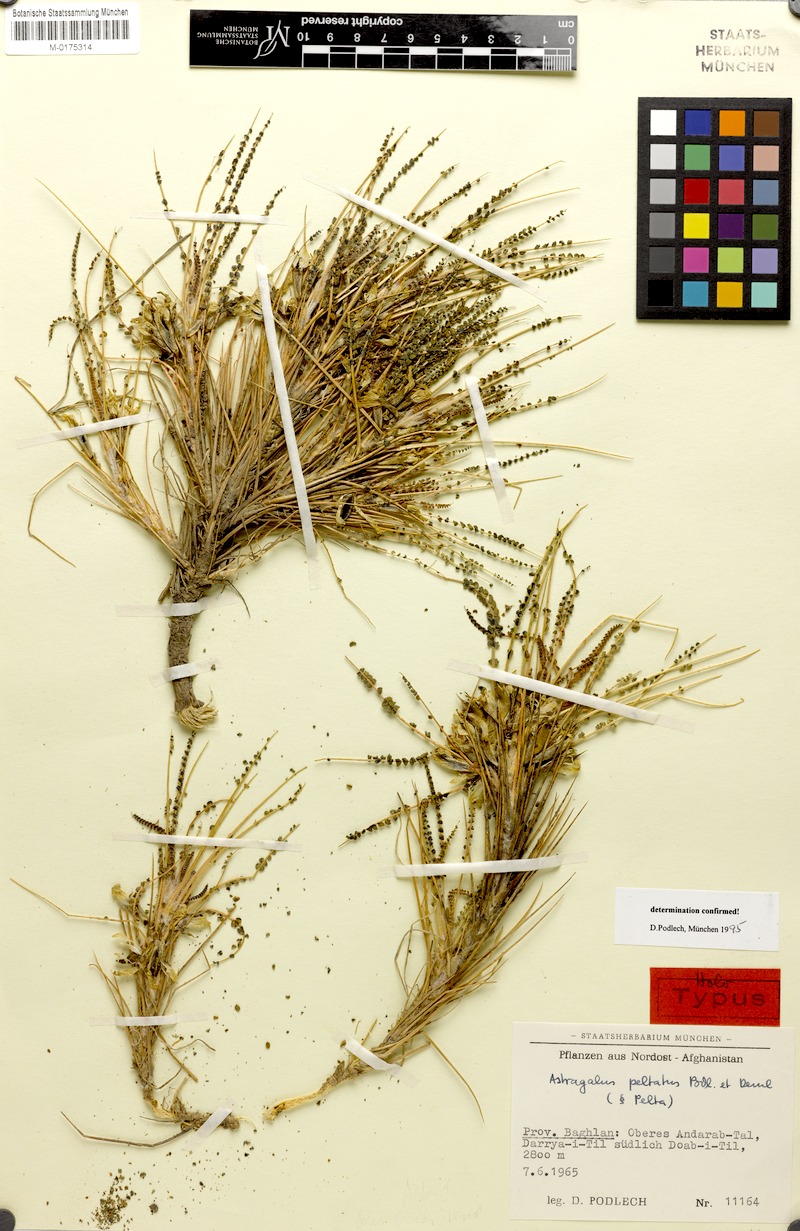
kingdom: Plantae
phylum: Tracheophyta
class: Magnoliopsida
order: Fabales
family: Fabaceae
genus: Astragalus
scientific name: Astragalus peltatus
